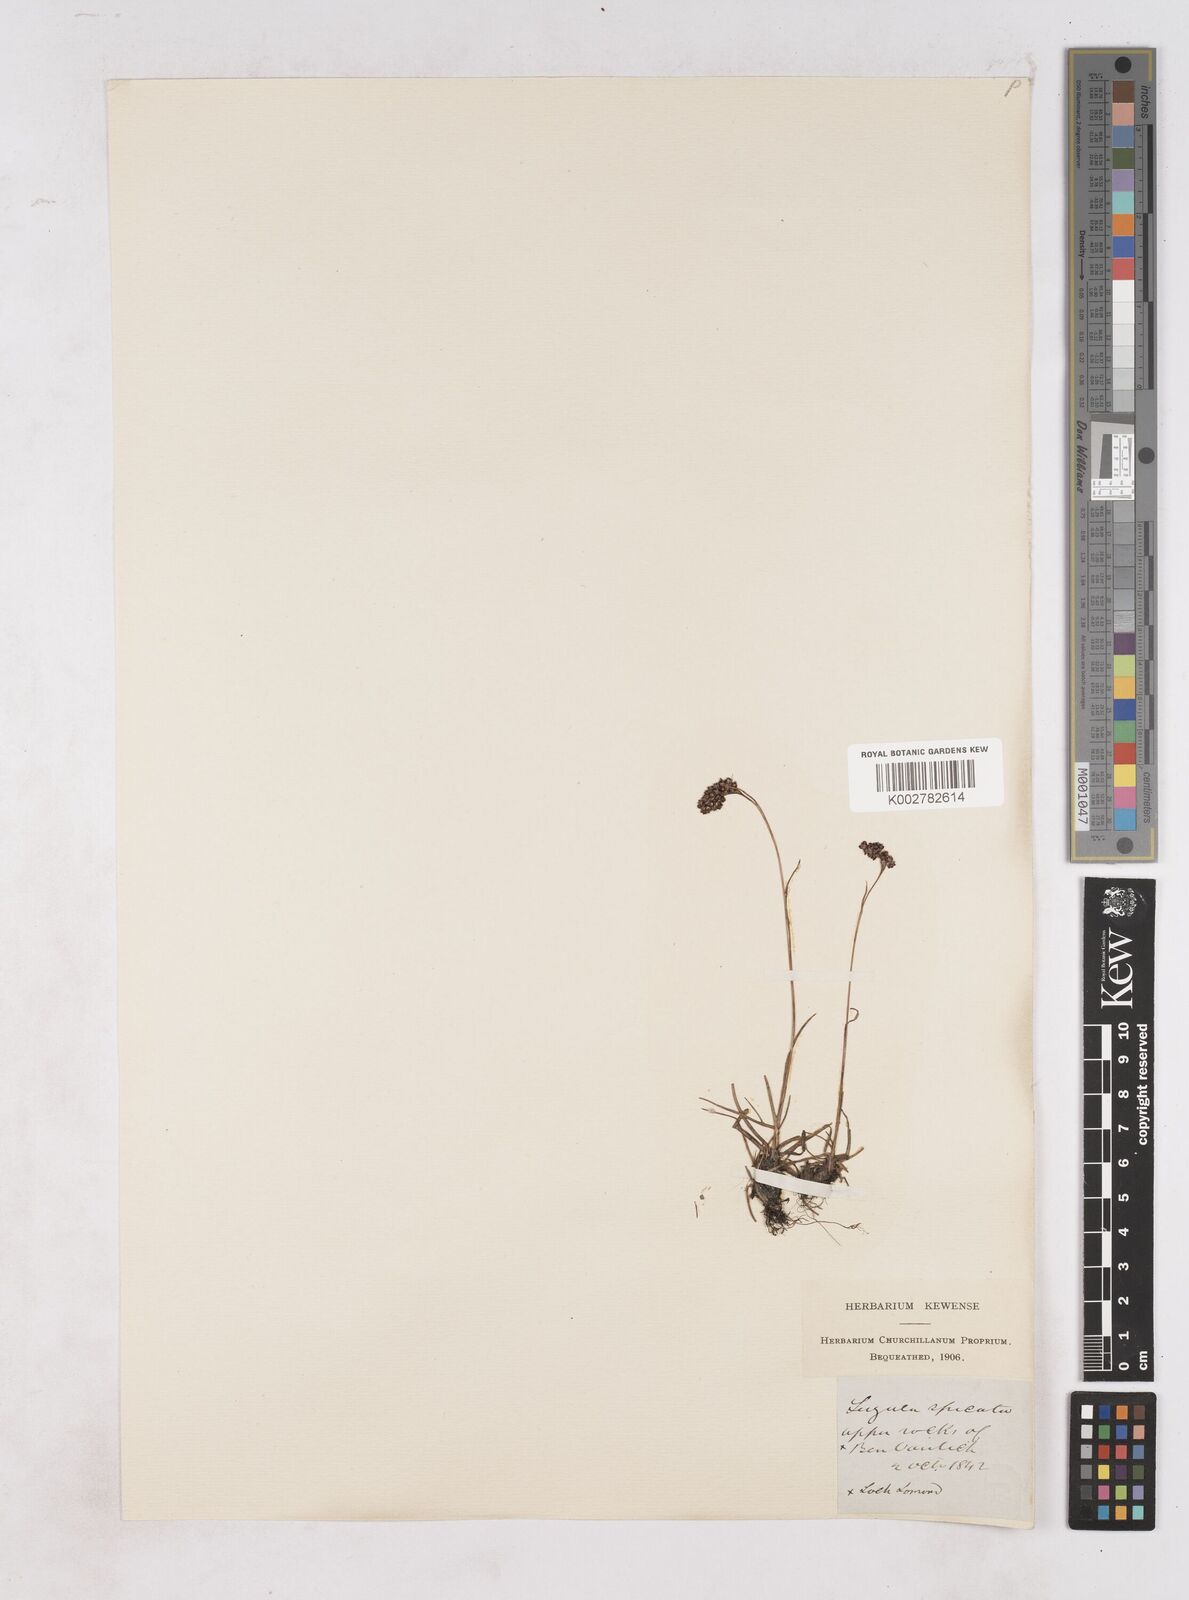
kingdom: Plantae
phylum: Tracheophyta
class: Liliopsida
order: Poales
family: Juncaceae
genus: Luzula
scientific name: Luzula spicata
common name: Spiked wood-rush
